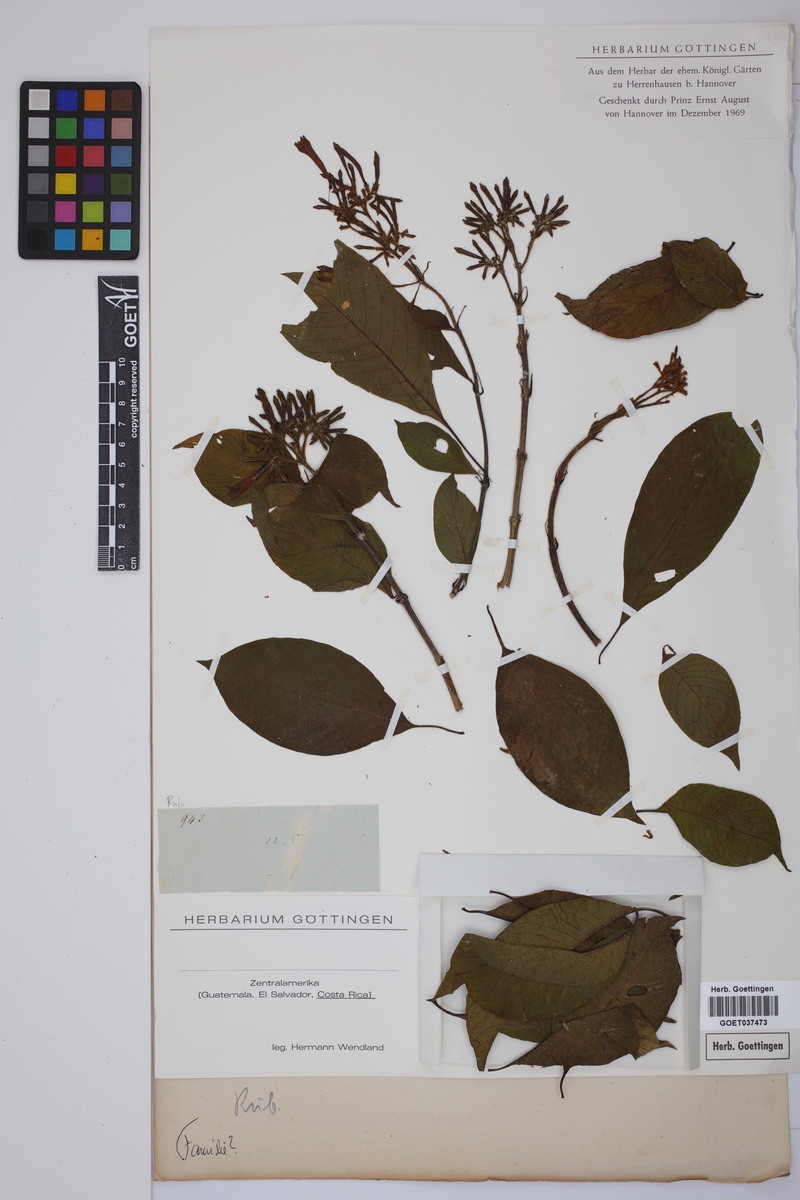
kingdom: Plantae
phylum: Tracheophyta
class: Magnoliopsida
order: Gentianales
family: Rubiaceae
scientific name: Rubiaceae
